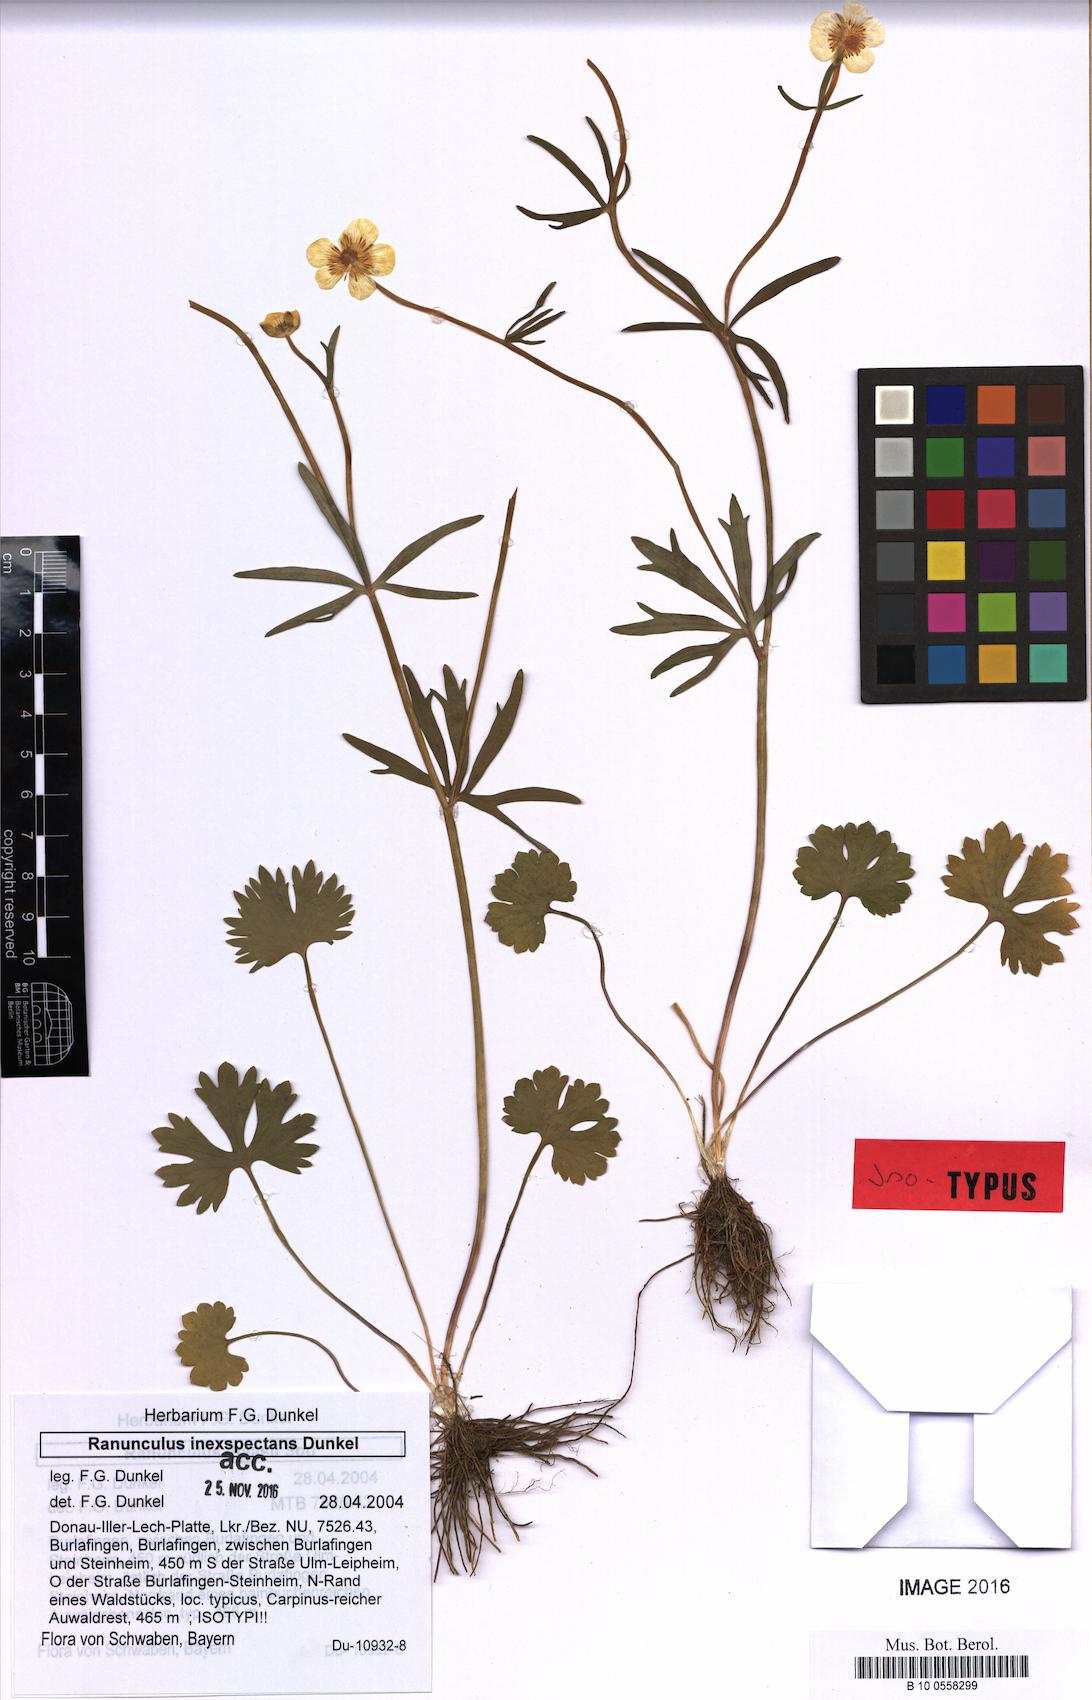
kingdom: Plantae
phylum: Tracheophyta
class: Magnoliopsida
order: Ranunculales
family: Ranunculaceae
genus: Ranunculus
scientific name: Ranunculus inexspectans
